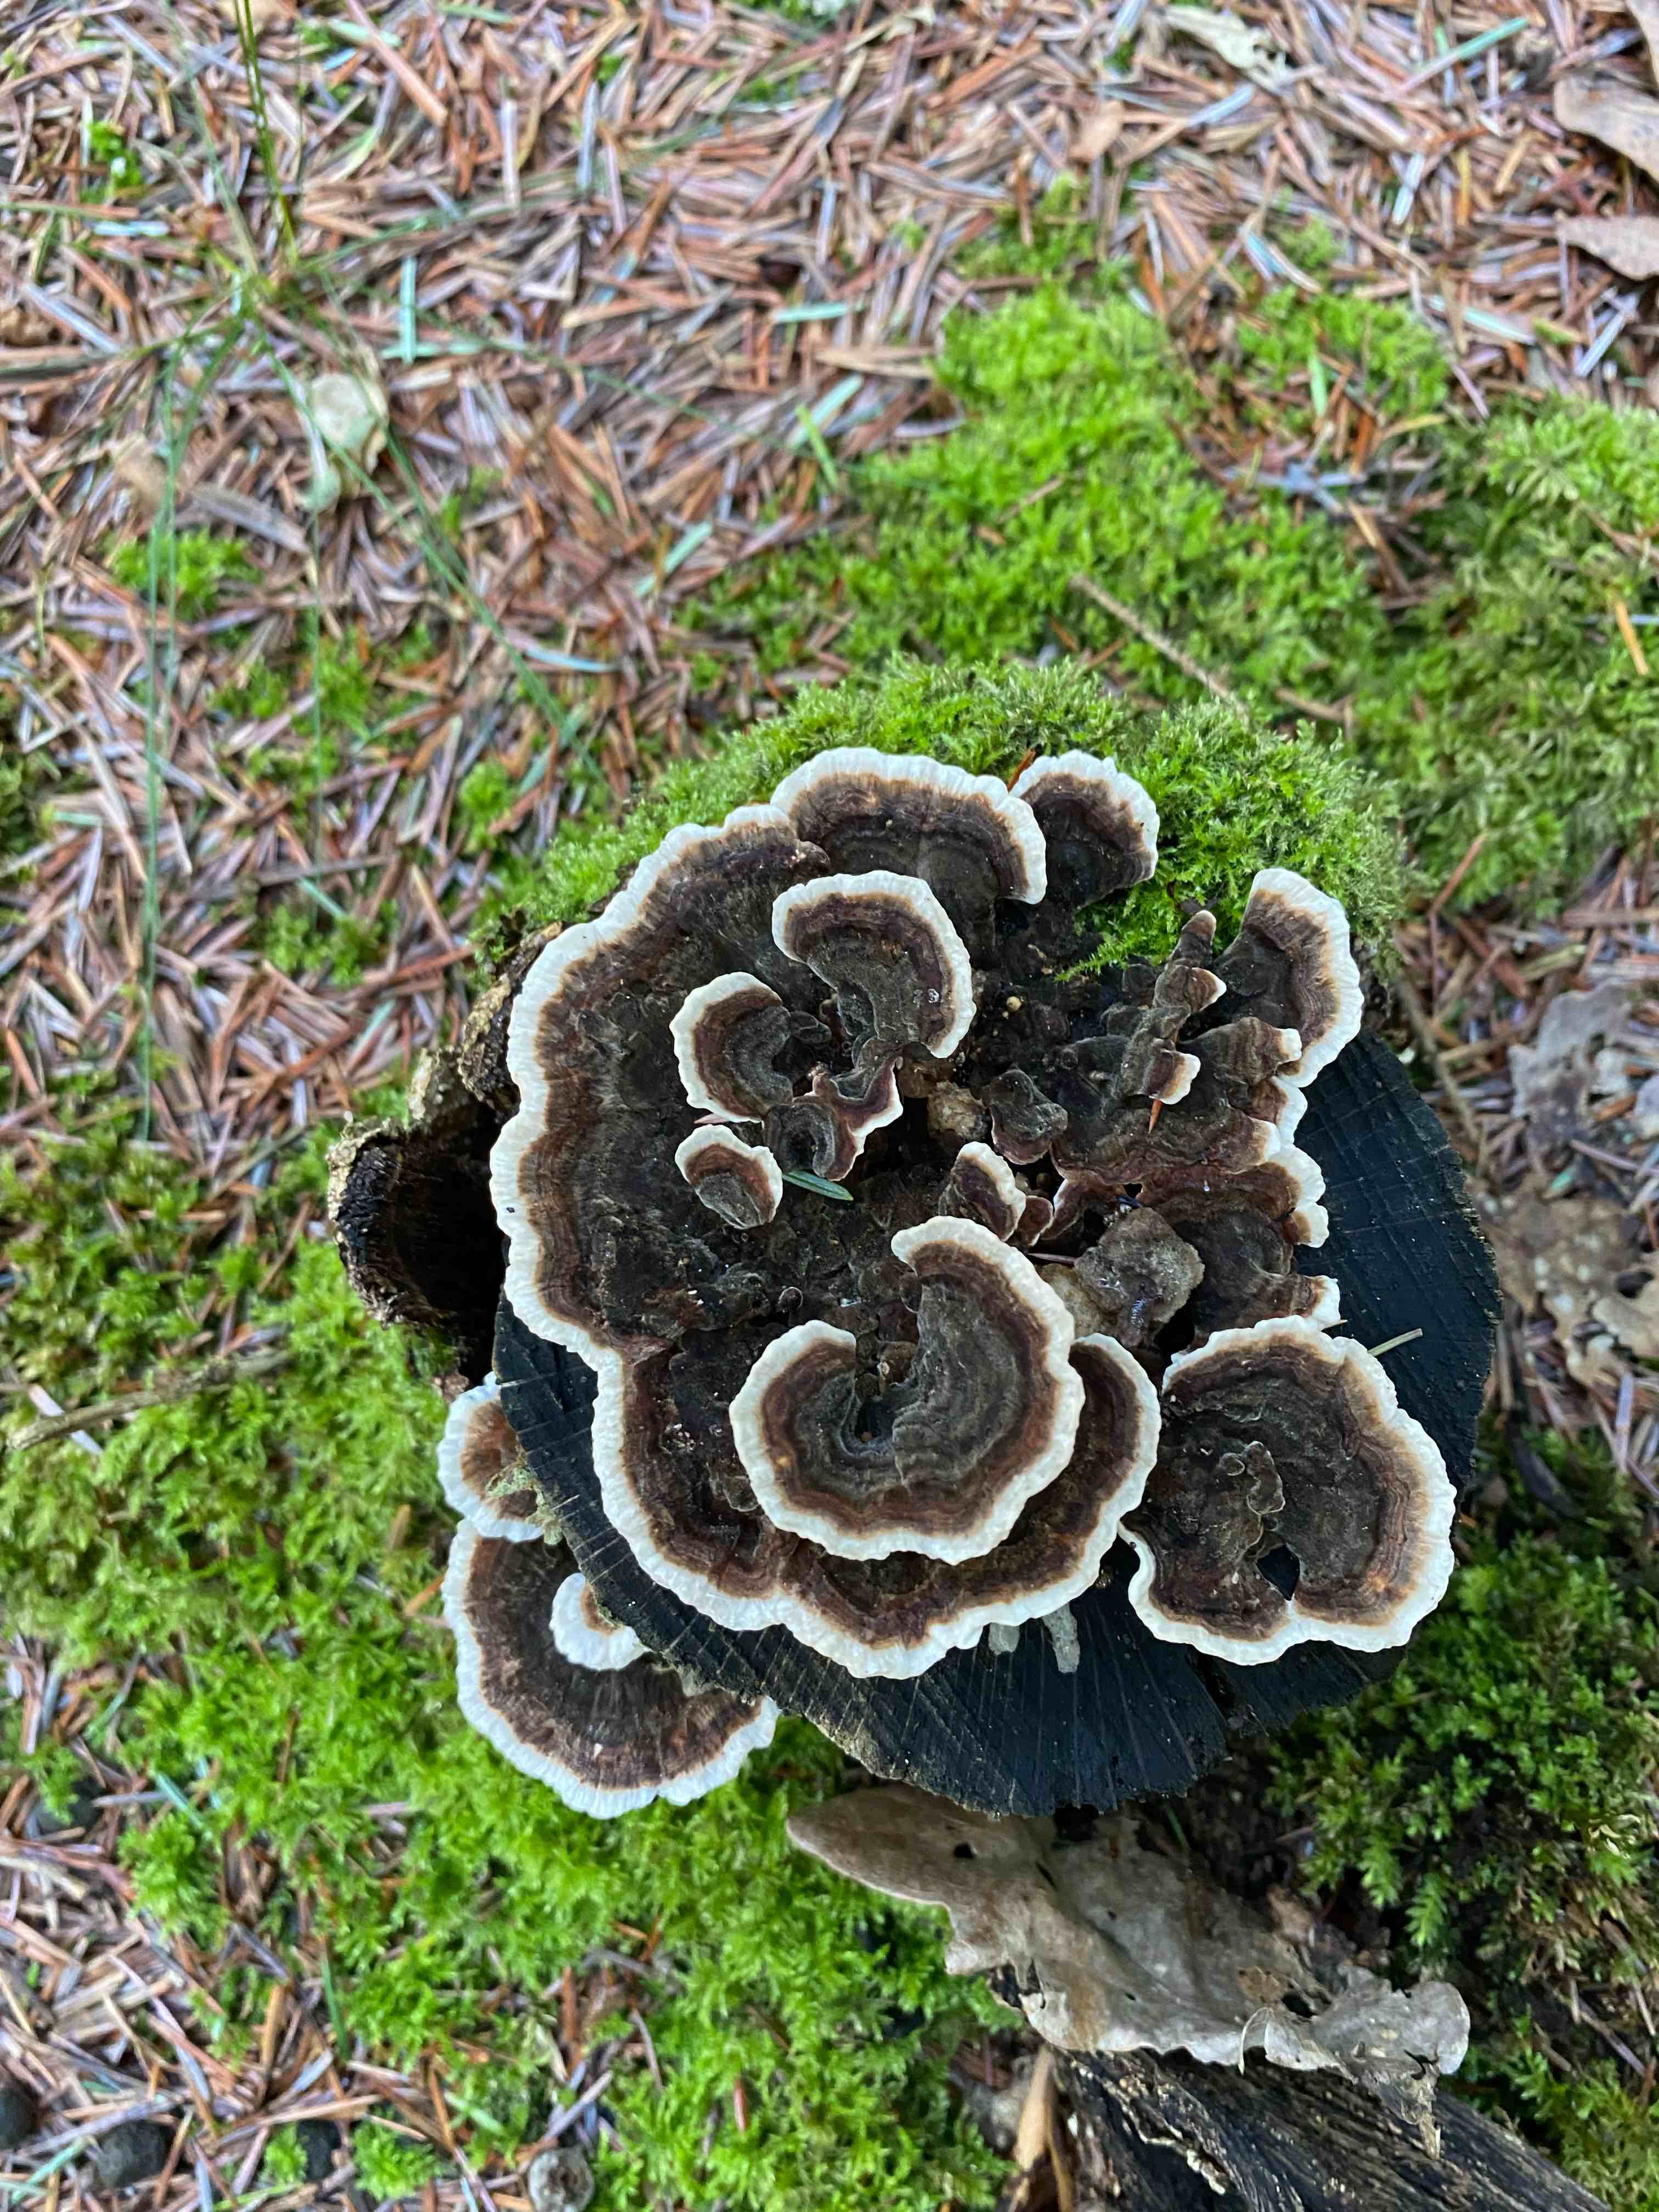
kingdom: Fungi
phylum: Basidiomycota
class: Agaricomycetes
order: Polyporales
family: Polyporaceae
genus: Trametes
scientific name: Trametes versicolor
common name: broget læderporesvamp
